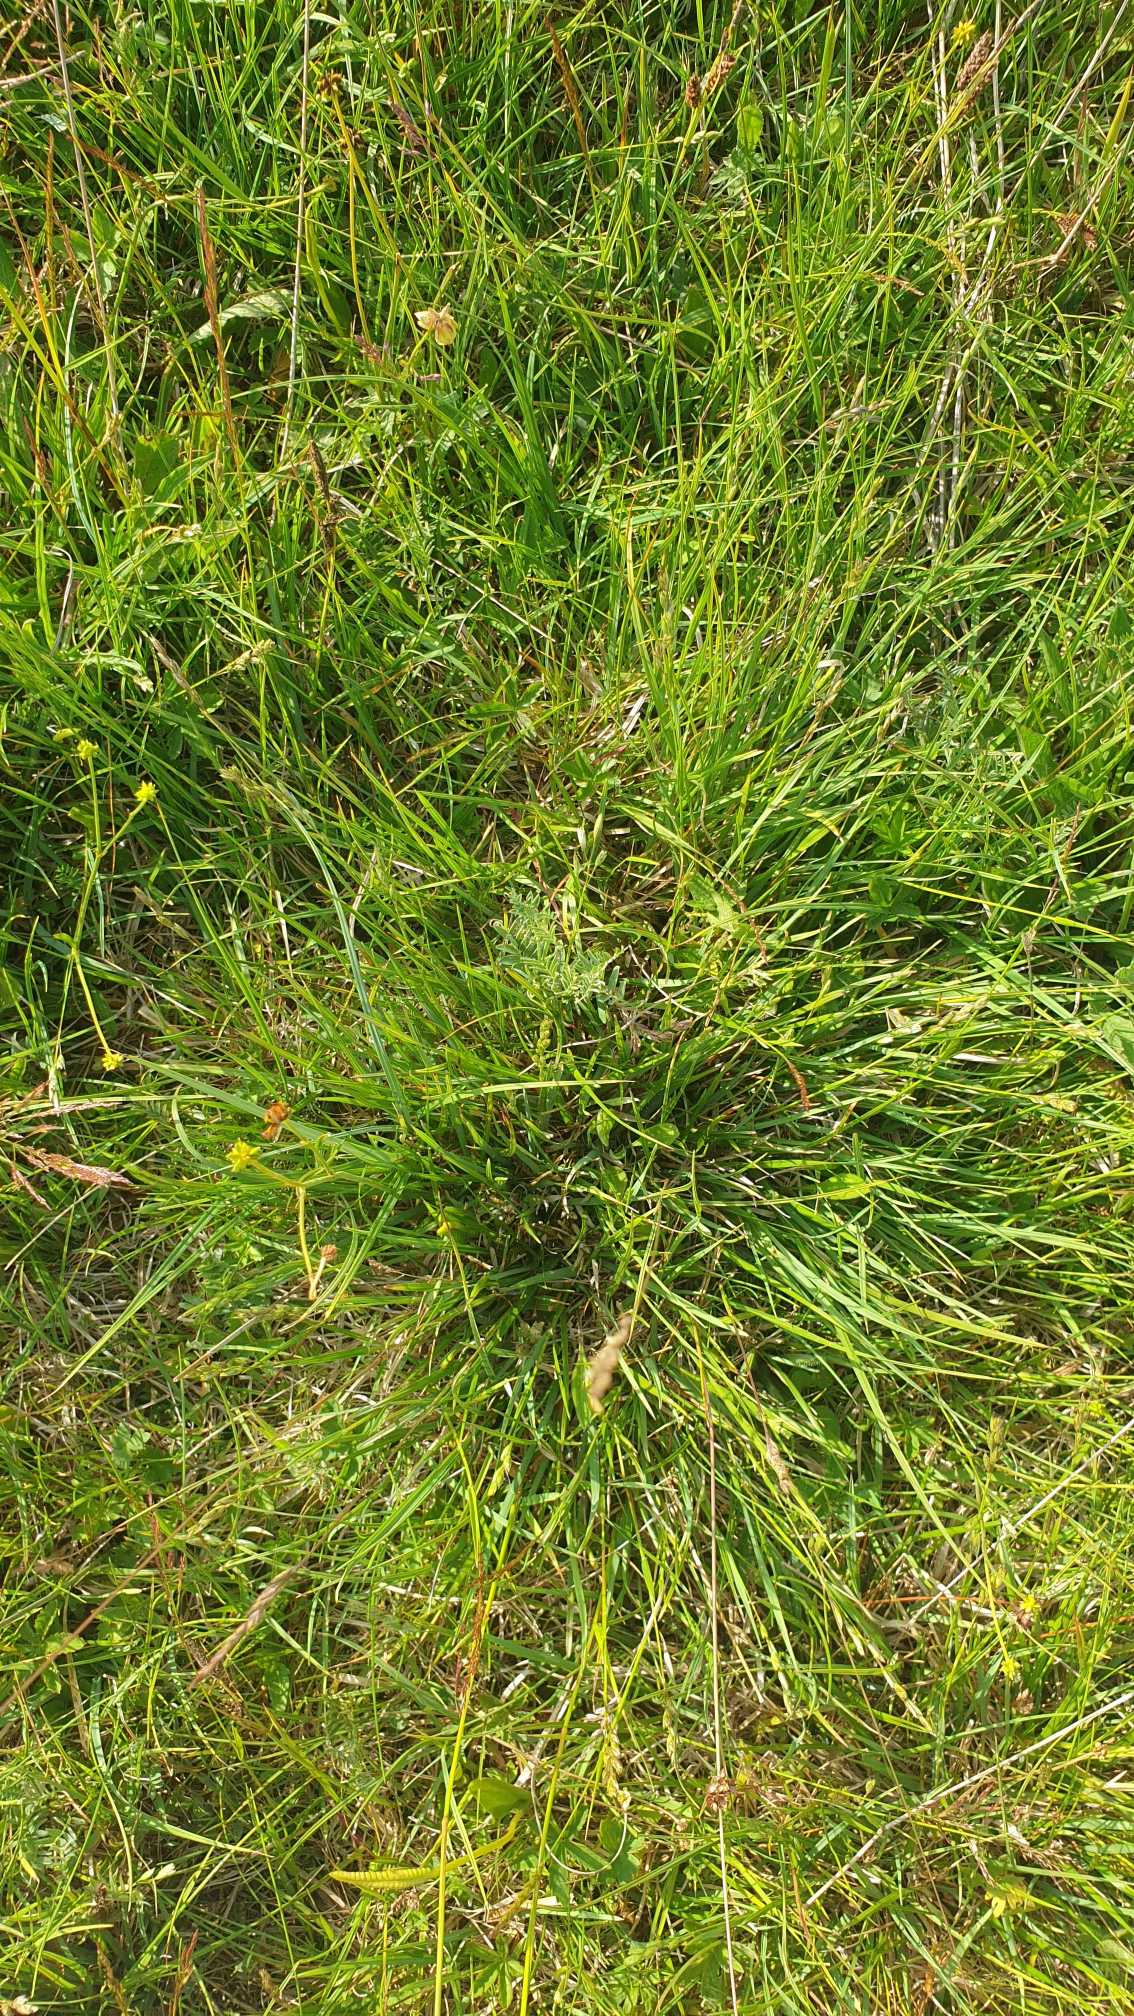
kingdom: Plantae
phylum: Tracheophyta
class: Liliopsida
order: Poales
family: Poaceae
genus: Danthonia
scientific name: Danthonia decumbens
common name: Tandbælg
